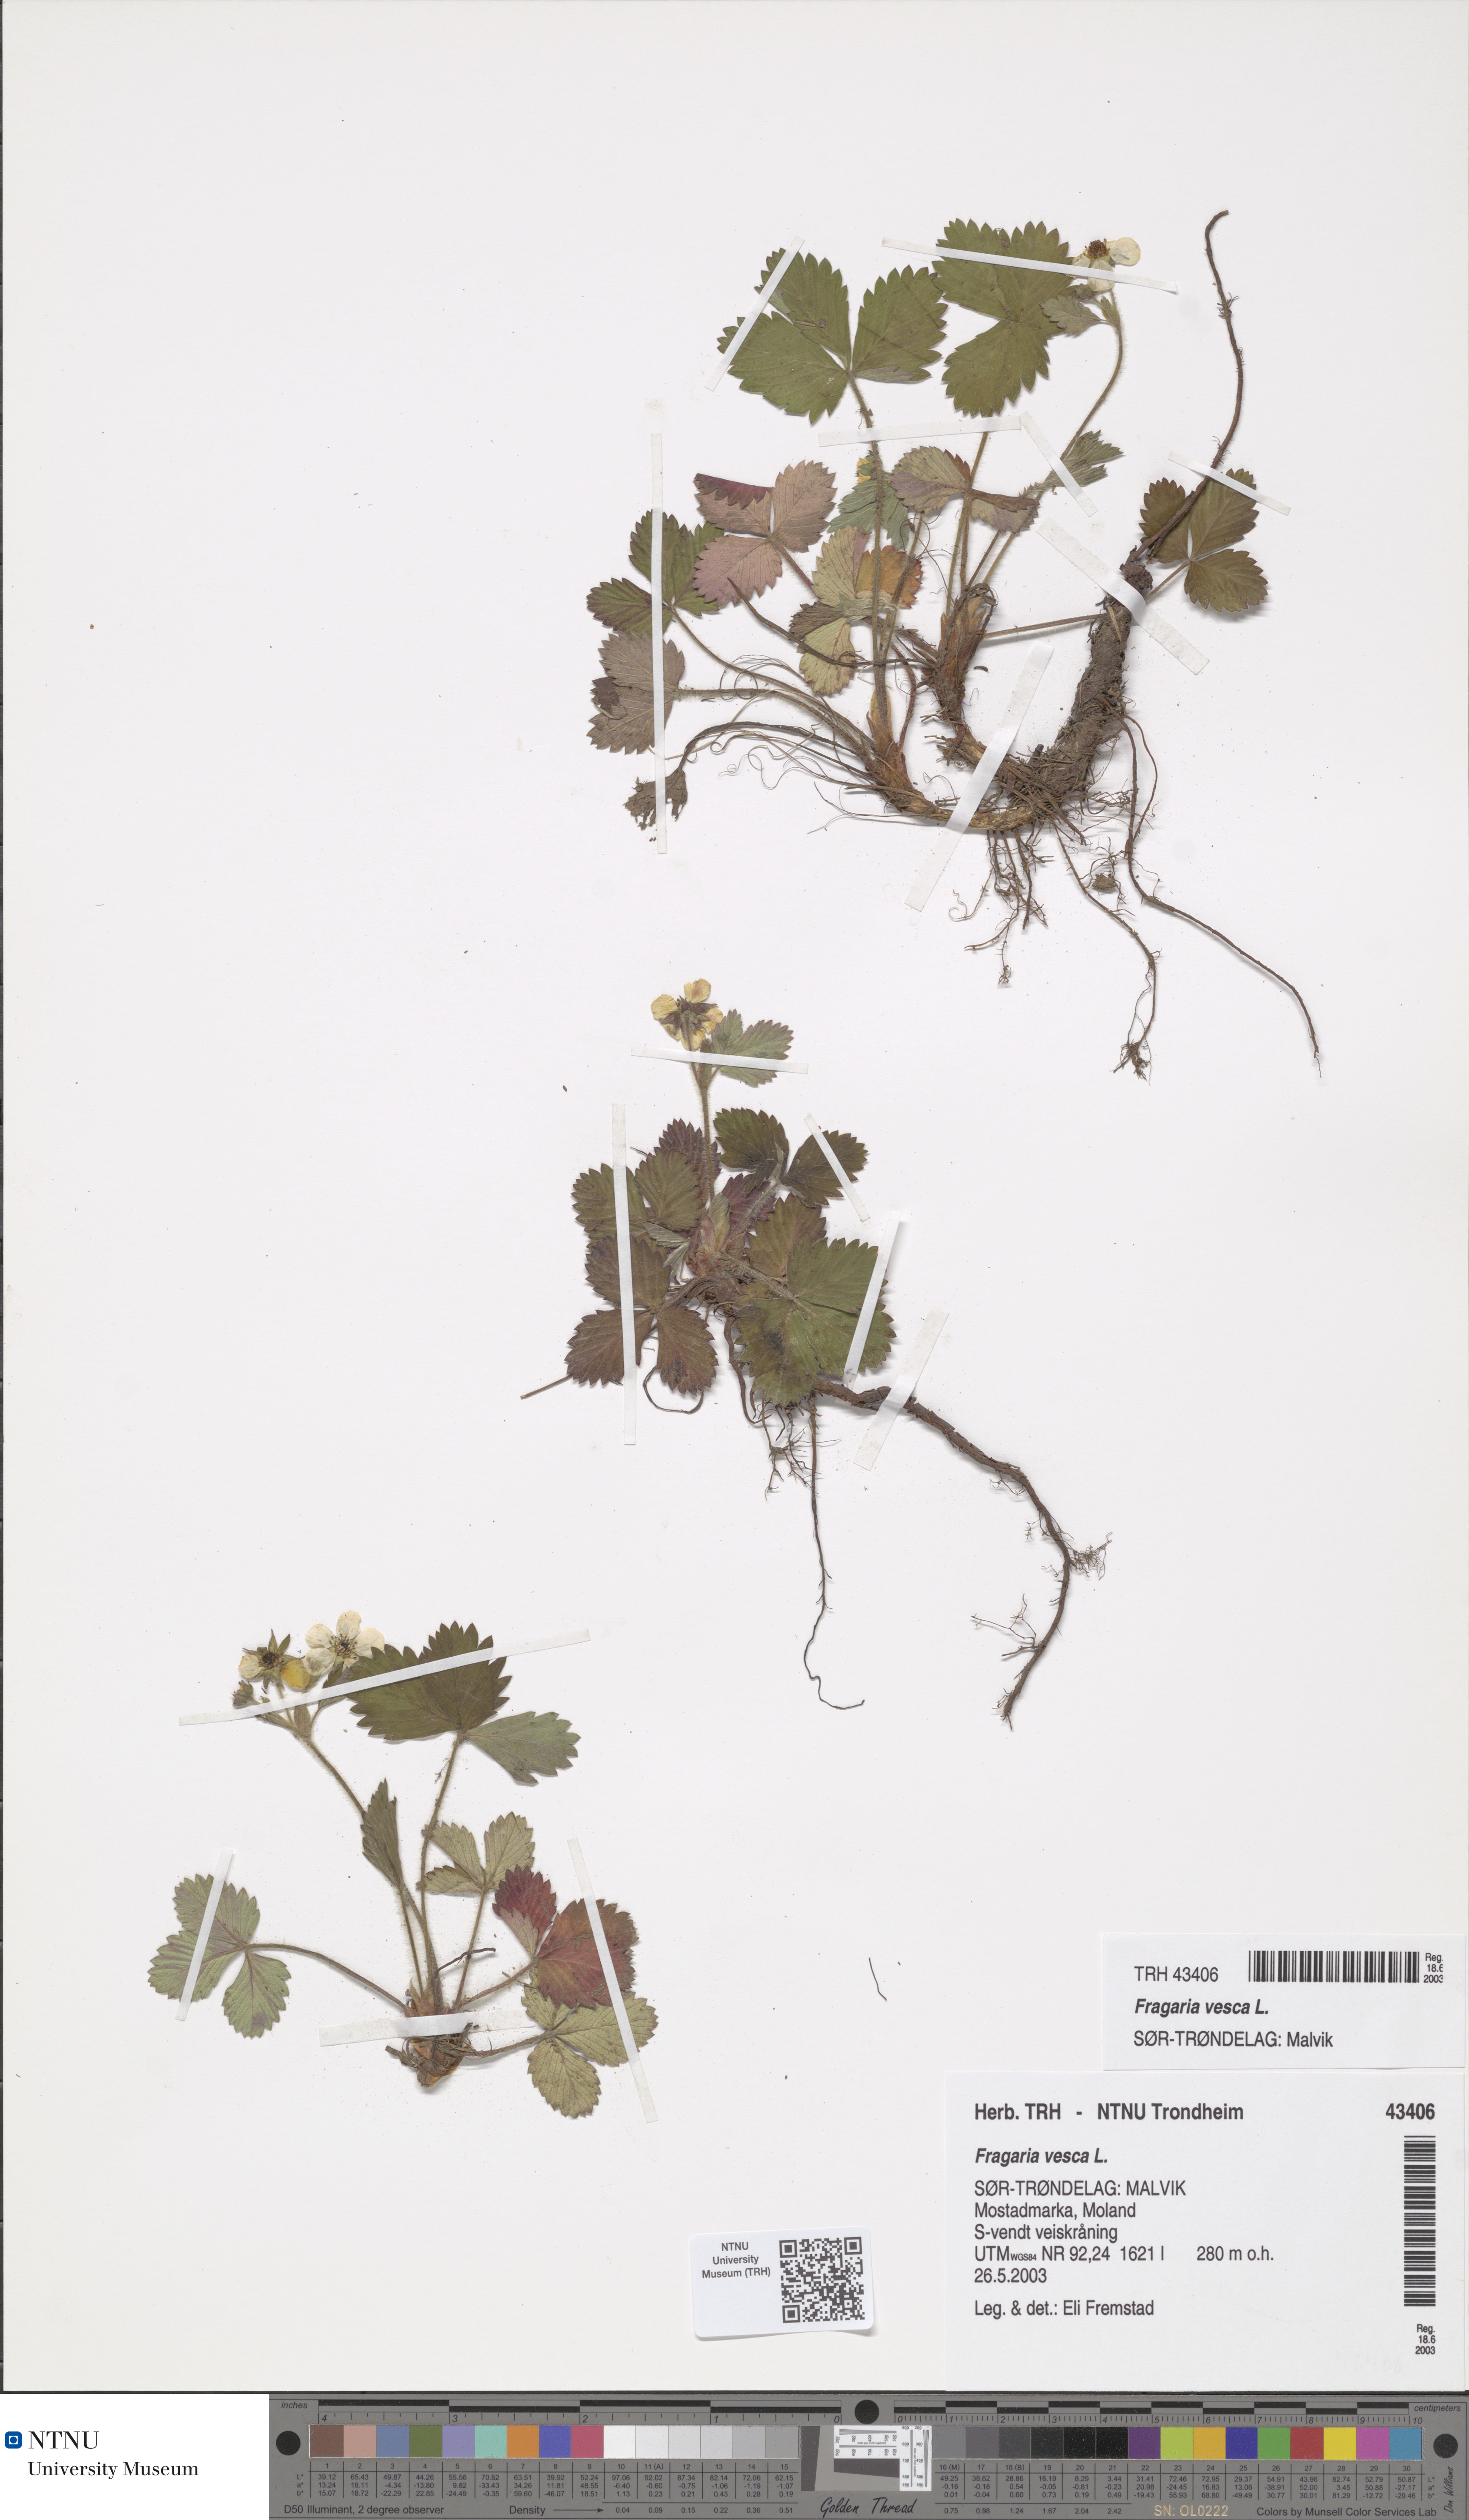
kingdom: Plantae
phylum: Tracheophyta
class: Magnoliopsida
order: Rosales
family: Rosaceae
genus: Fragaria
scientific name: Fragaria vesca
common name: Wild strawberry
